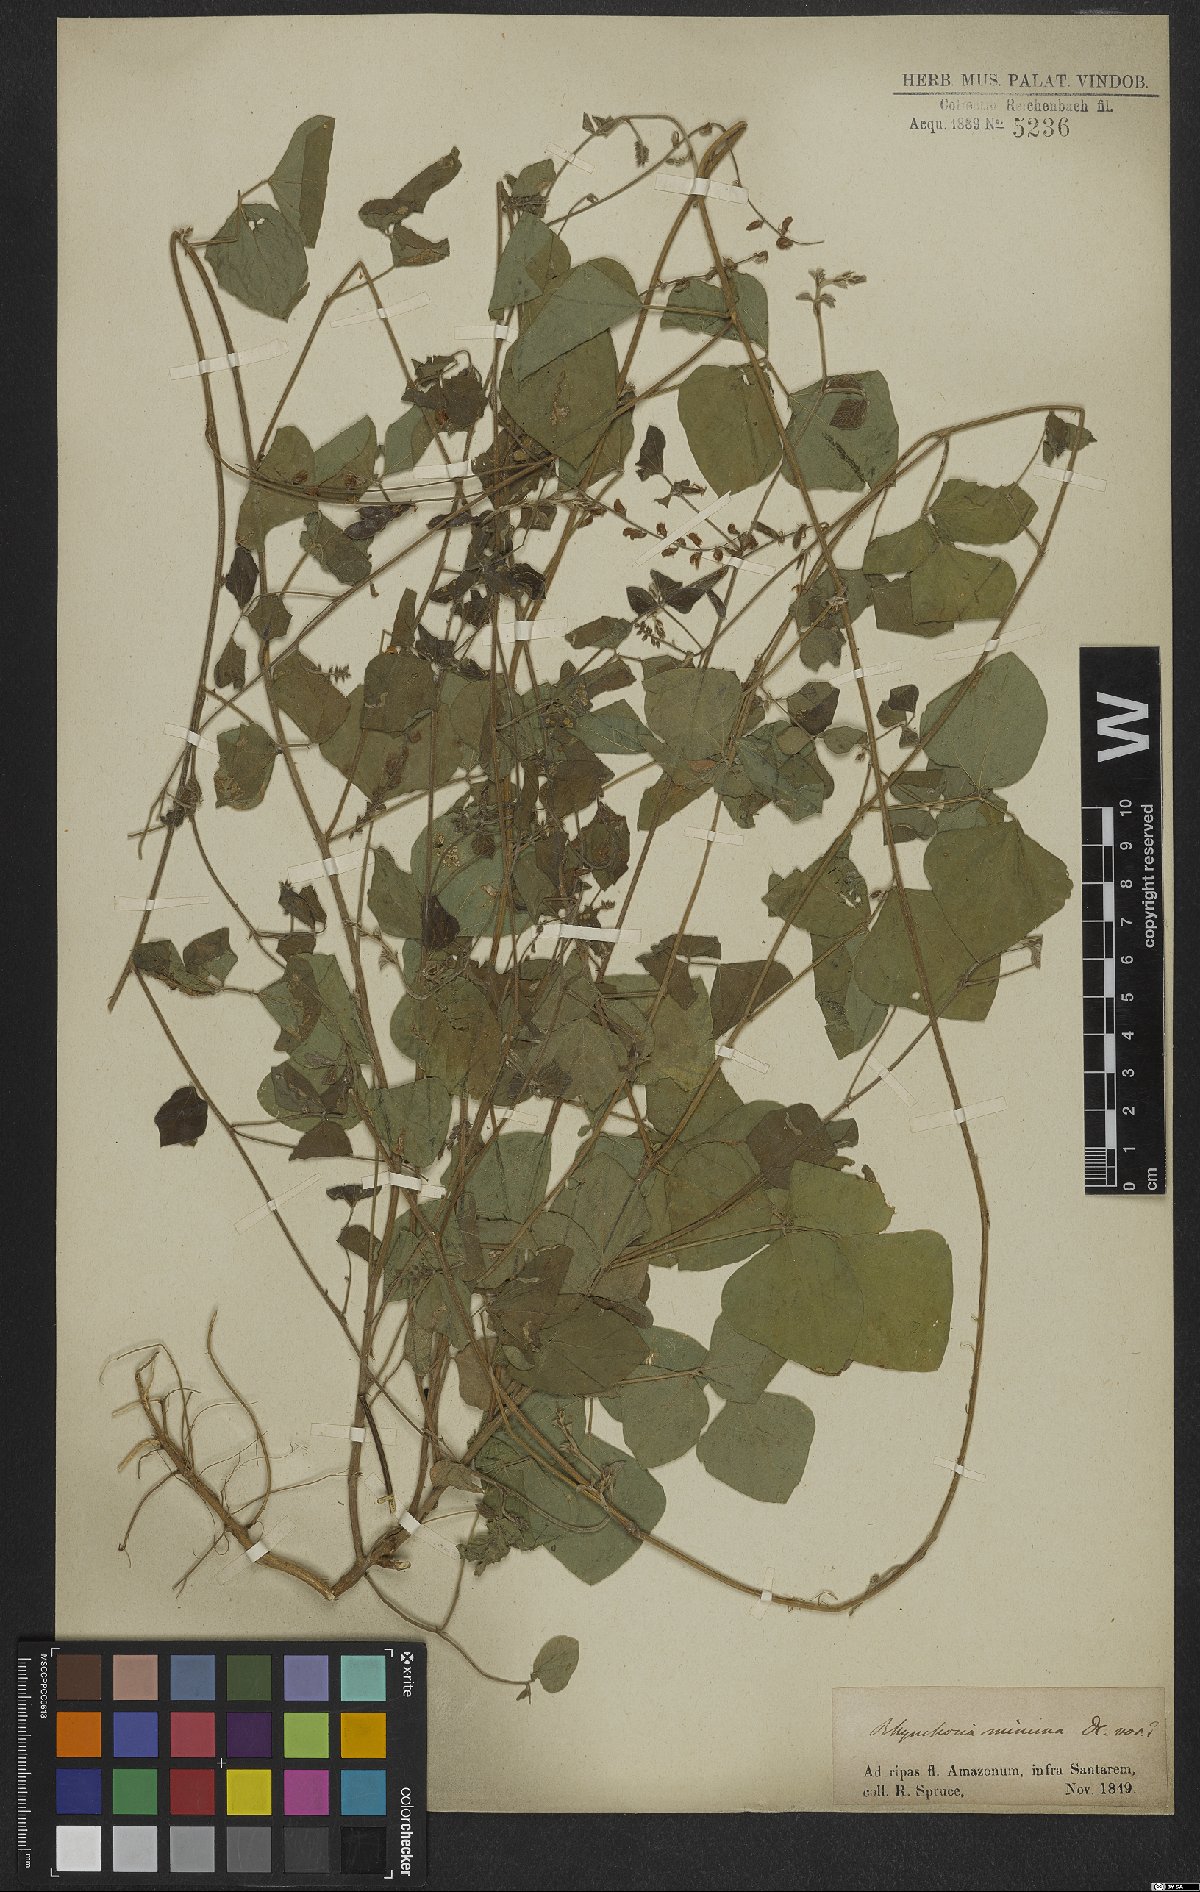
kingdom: Plantae
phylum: Tracheophyta
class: Magnoliopsida
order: Fabales
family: Fabaceae
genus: Rhynchosia
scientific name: Rhynchosia minima
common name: Least snoutbean
